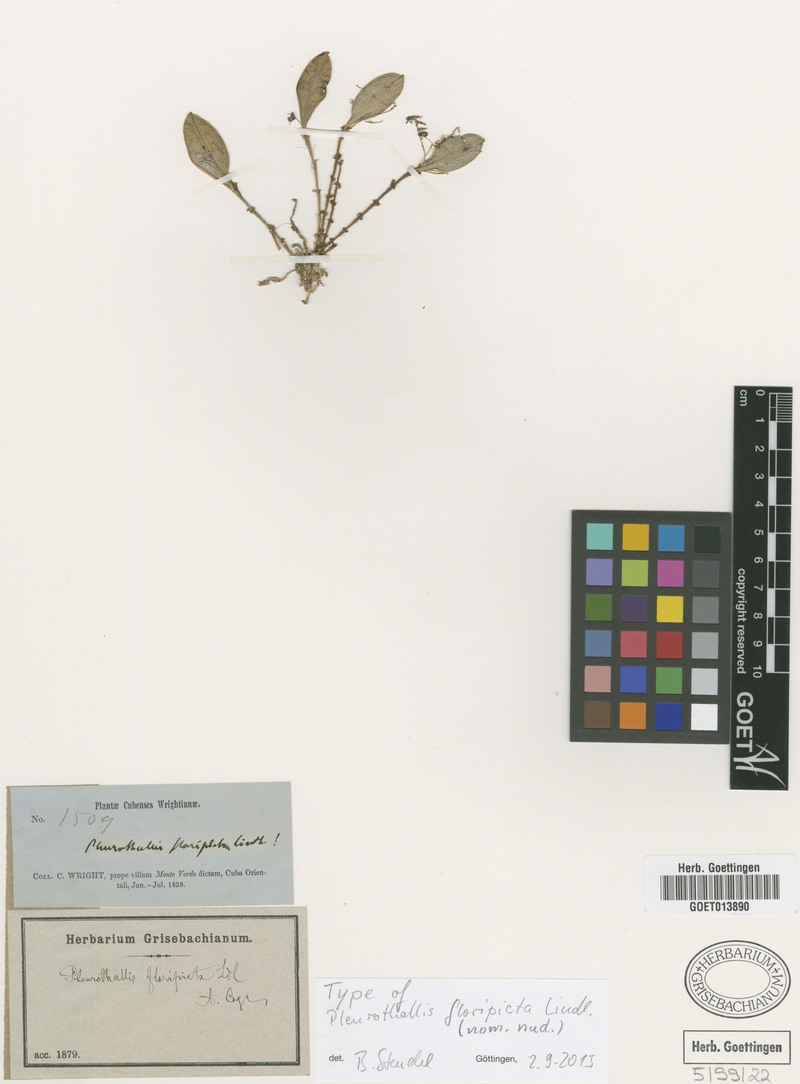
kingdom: Plantae
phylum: Tracheophyta
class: Liliopsida
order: Asparagales
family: Orchidaceae
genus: Lepanthopsis
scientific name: Lepanthopsis melanantha
